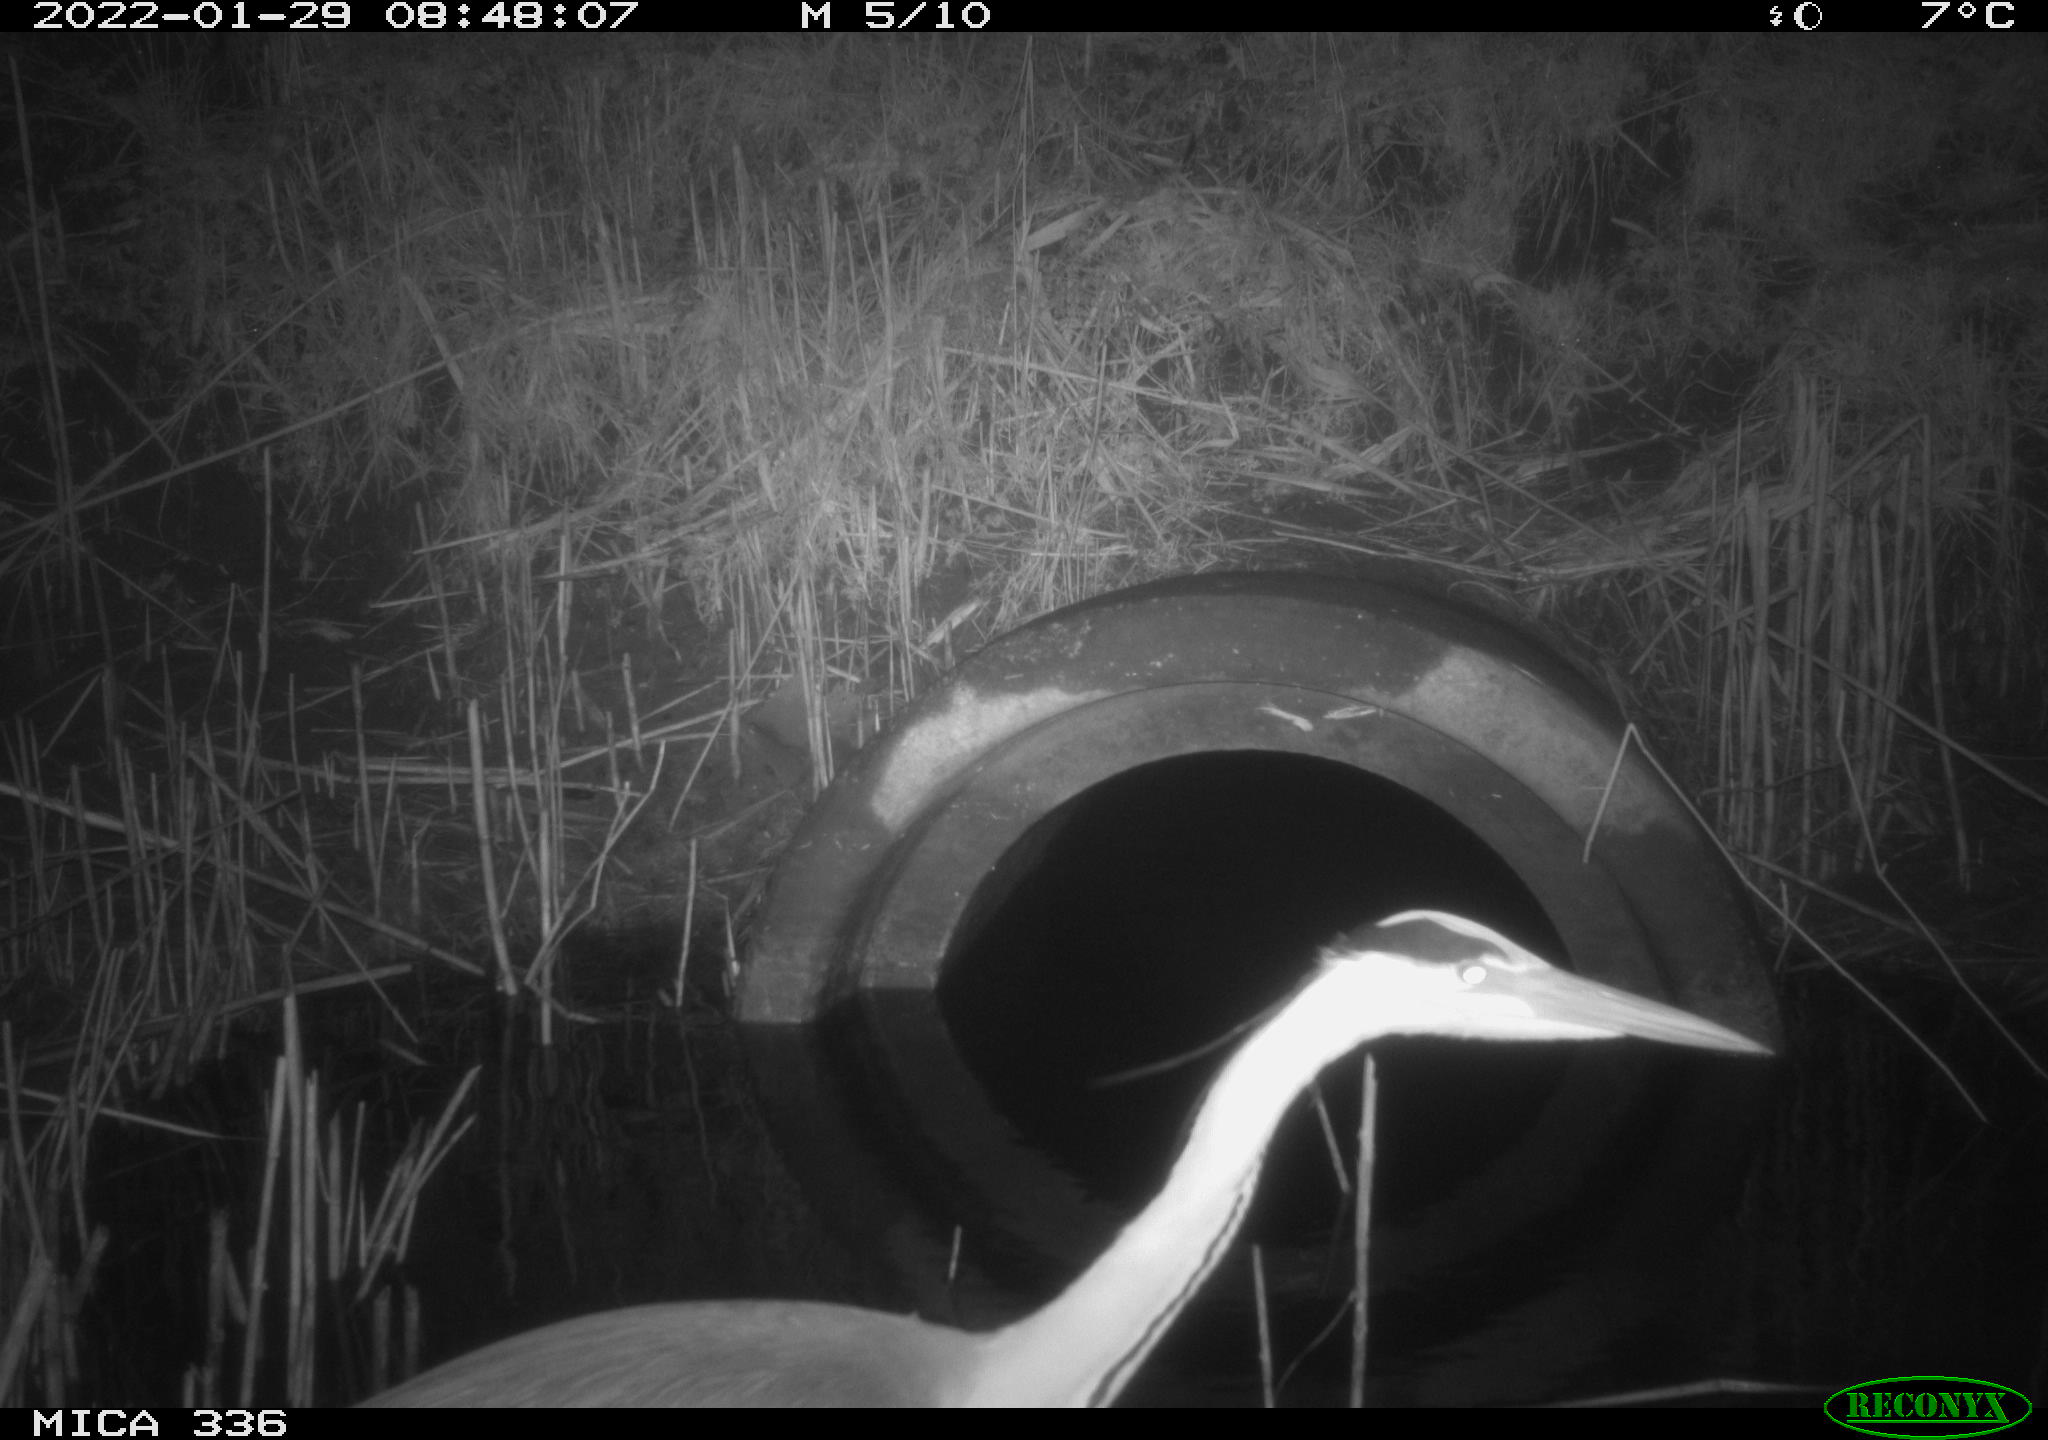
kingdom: Animalia
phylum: Chordata
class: Aves
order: Pelecaniformes
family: Ardeidae
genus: Ardea
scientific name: Ardea cinerea
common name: Grey heron
